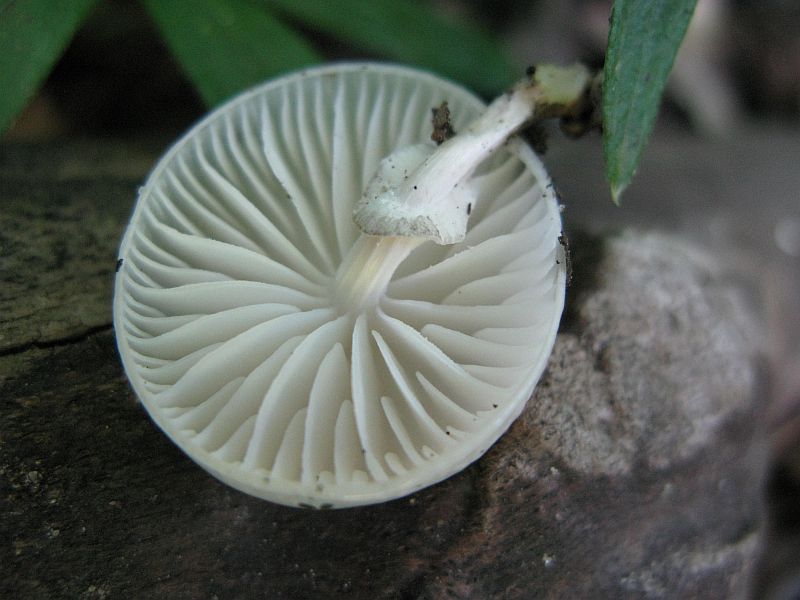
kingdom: Fungi
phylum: Basidiomycota
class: Agaricomycetes
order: Agaricales
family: Physalacriaceae
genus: Mucidula
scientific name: Mucidula mucida
